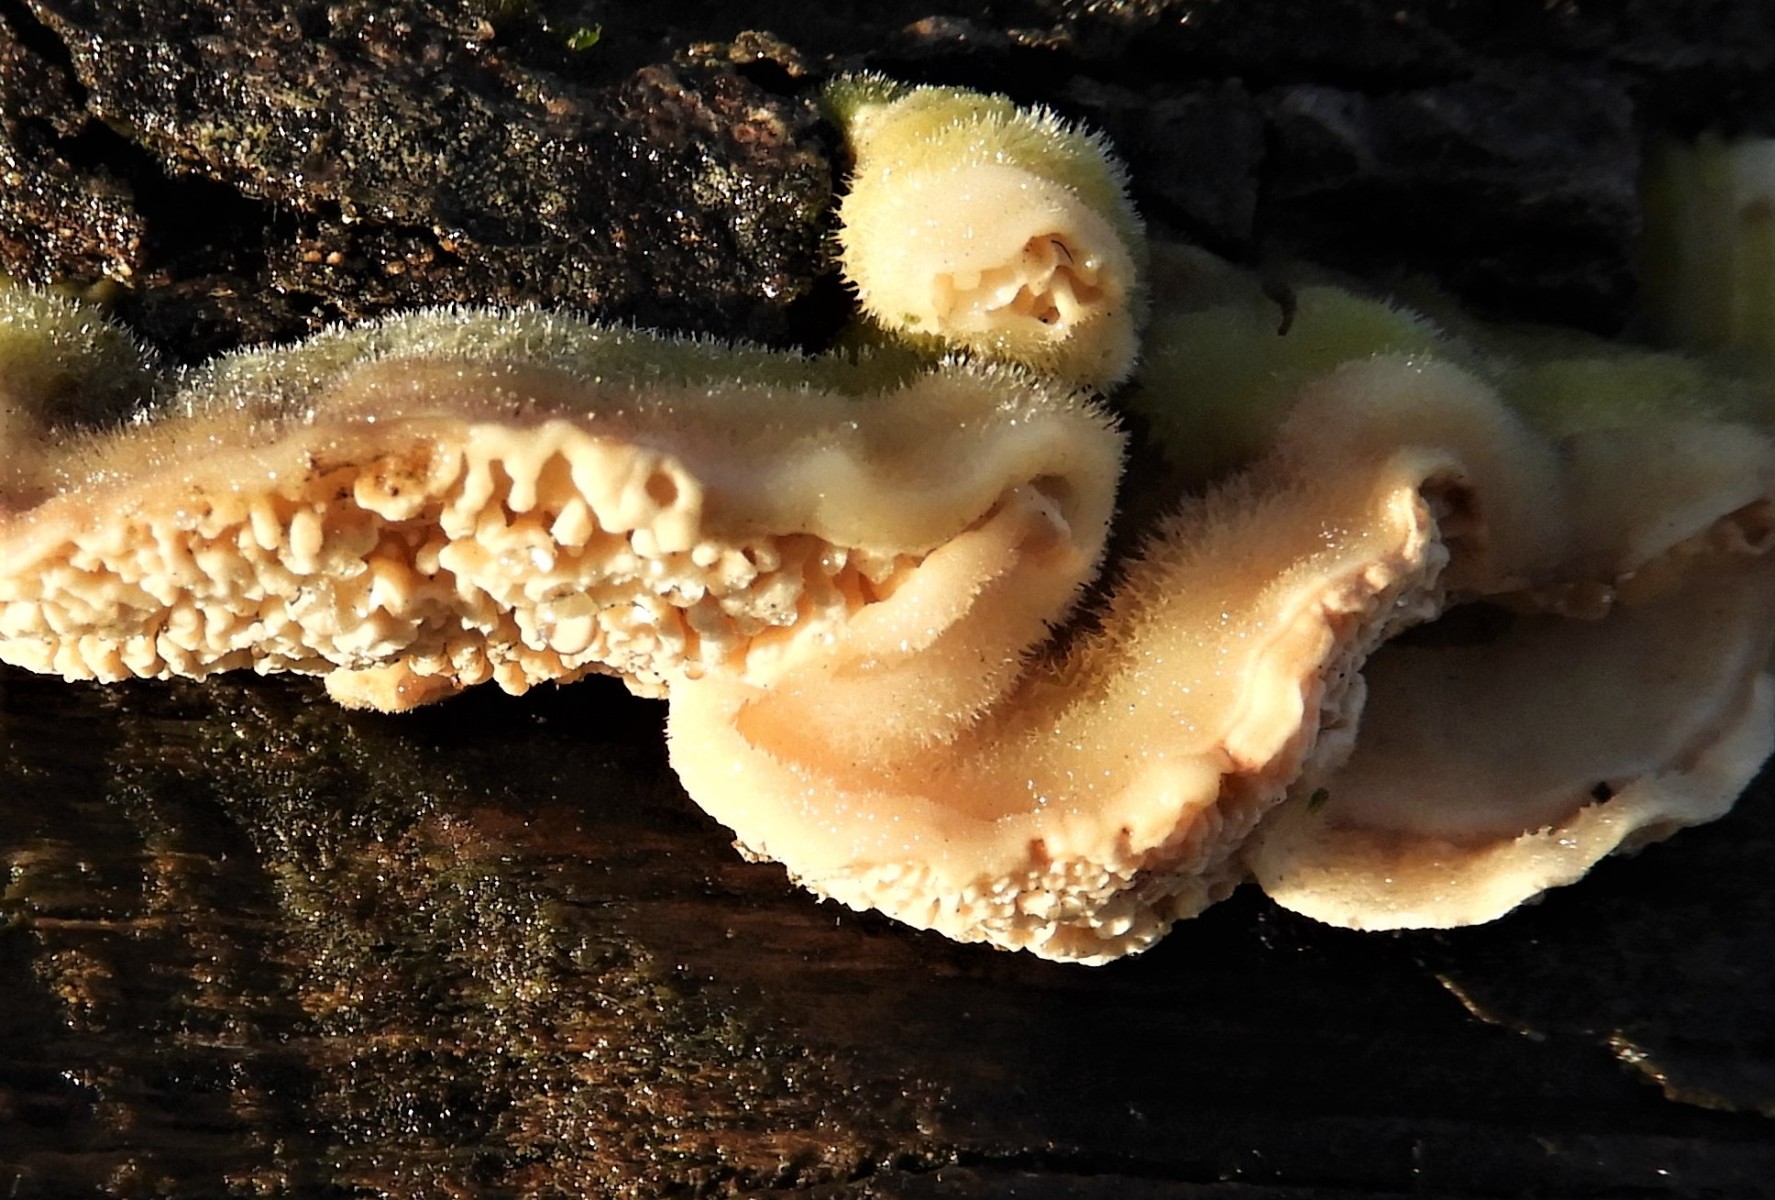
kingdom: Fungi
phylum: Basidiomycota
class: Agaricomycetes
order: Polyporales
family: Polyporaceae
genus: Lenzites
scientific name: Lenzites betulinus
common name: birke-læderporesvamp
